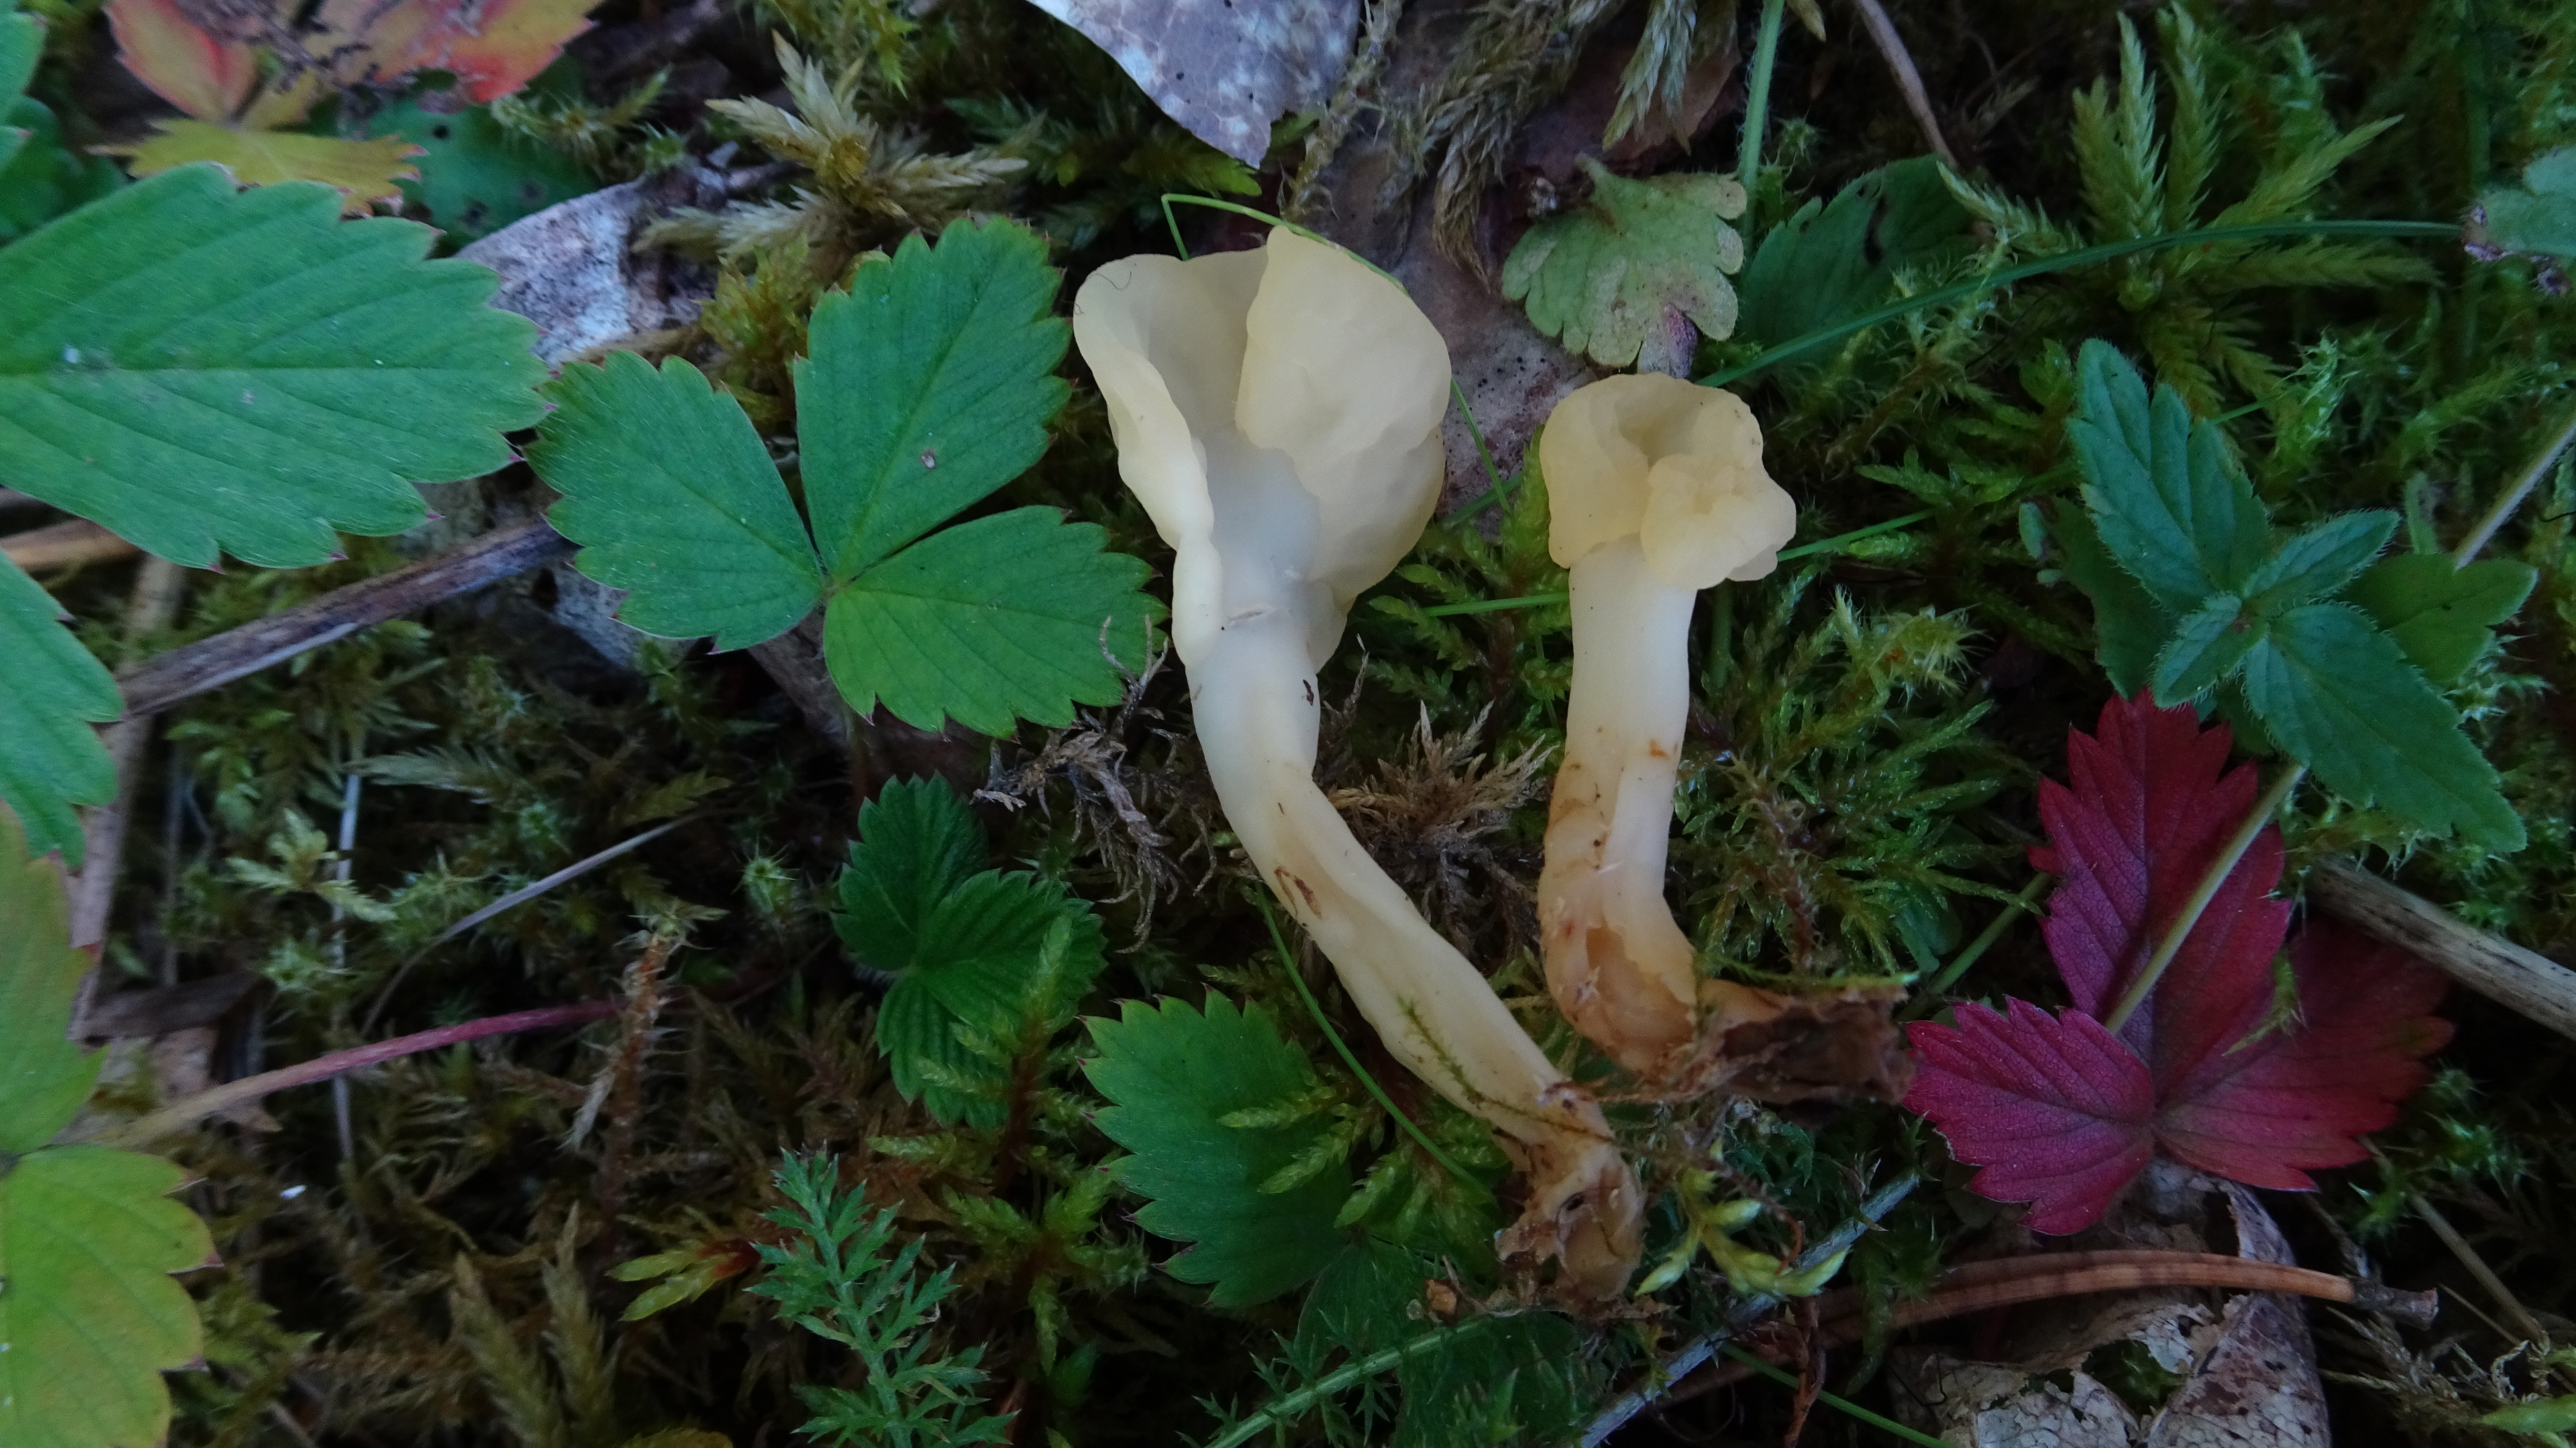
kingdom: Fungi
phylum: Ascomycota
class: Leotiomycetes
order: Rhytismatales
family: Cudoniaceae
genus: Spathularia
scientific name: Spathularia flavida
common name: Yellow fan
